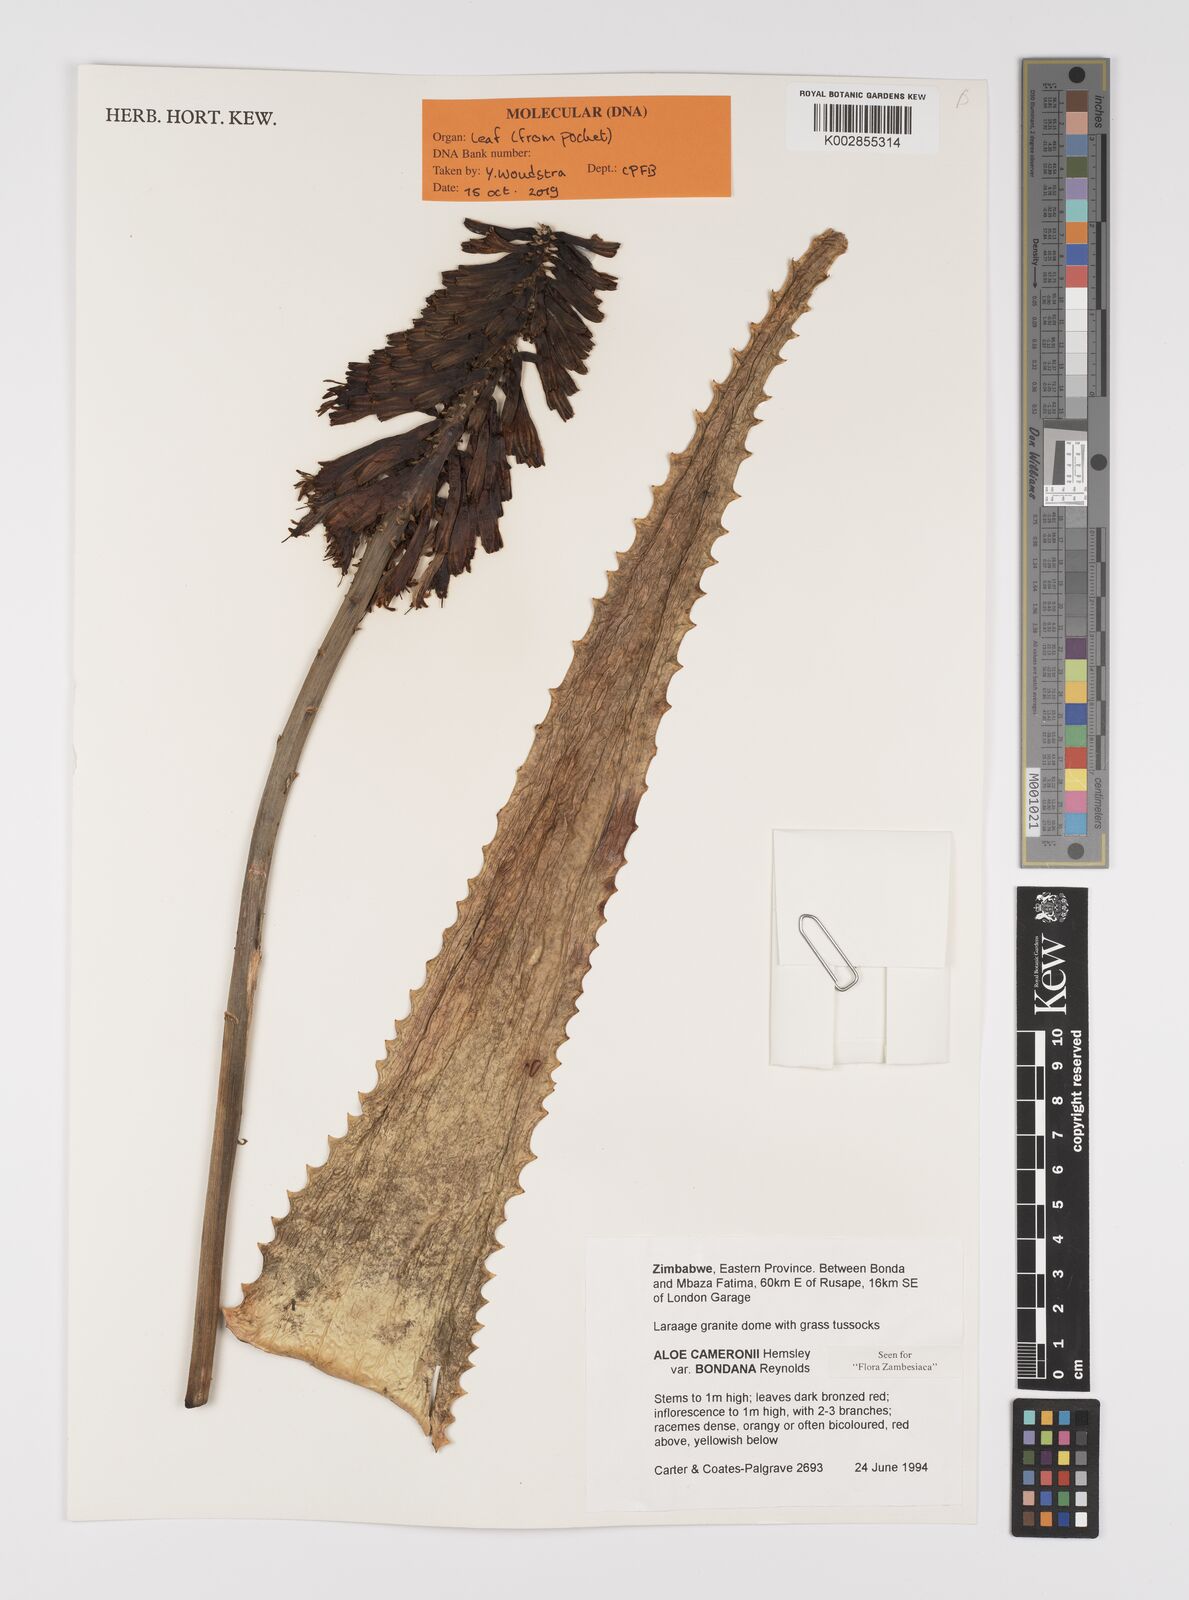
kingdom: Plantae
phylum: Tracheophyta
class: Liliopsida
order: Asparagales
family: Asphodelaceae
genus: Aloe
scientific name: Aloe cameronii
